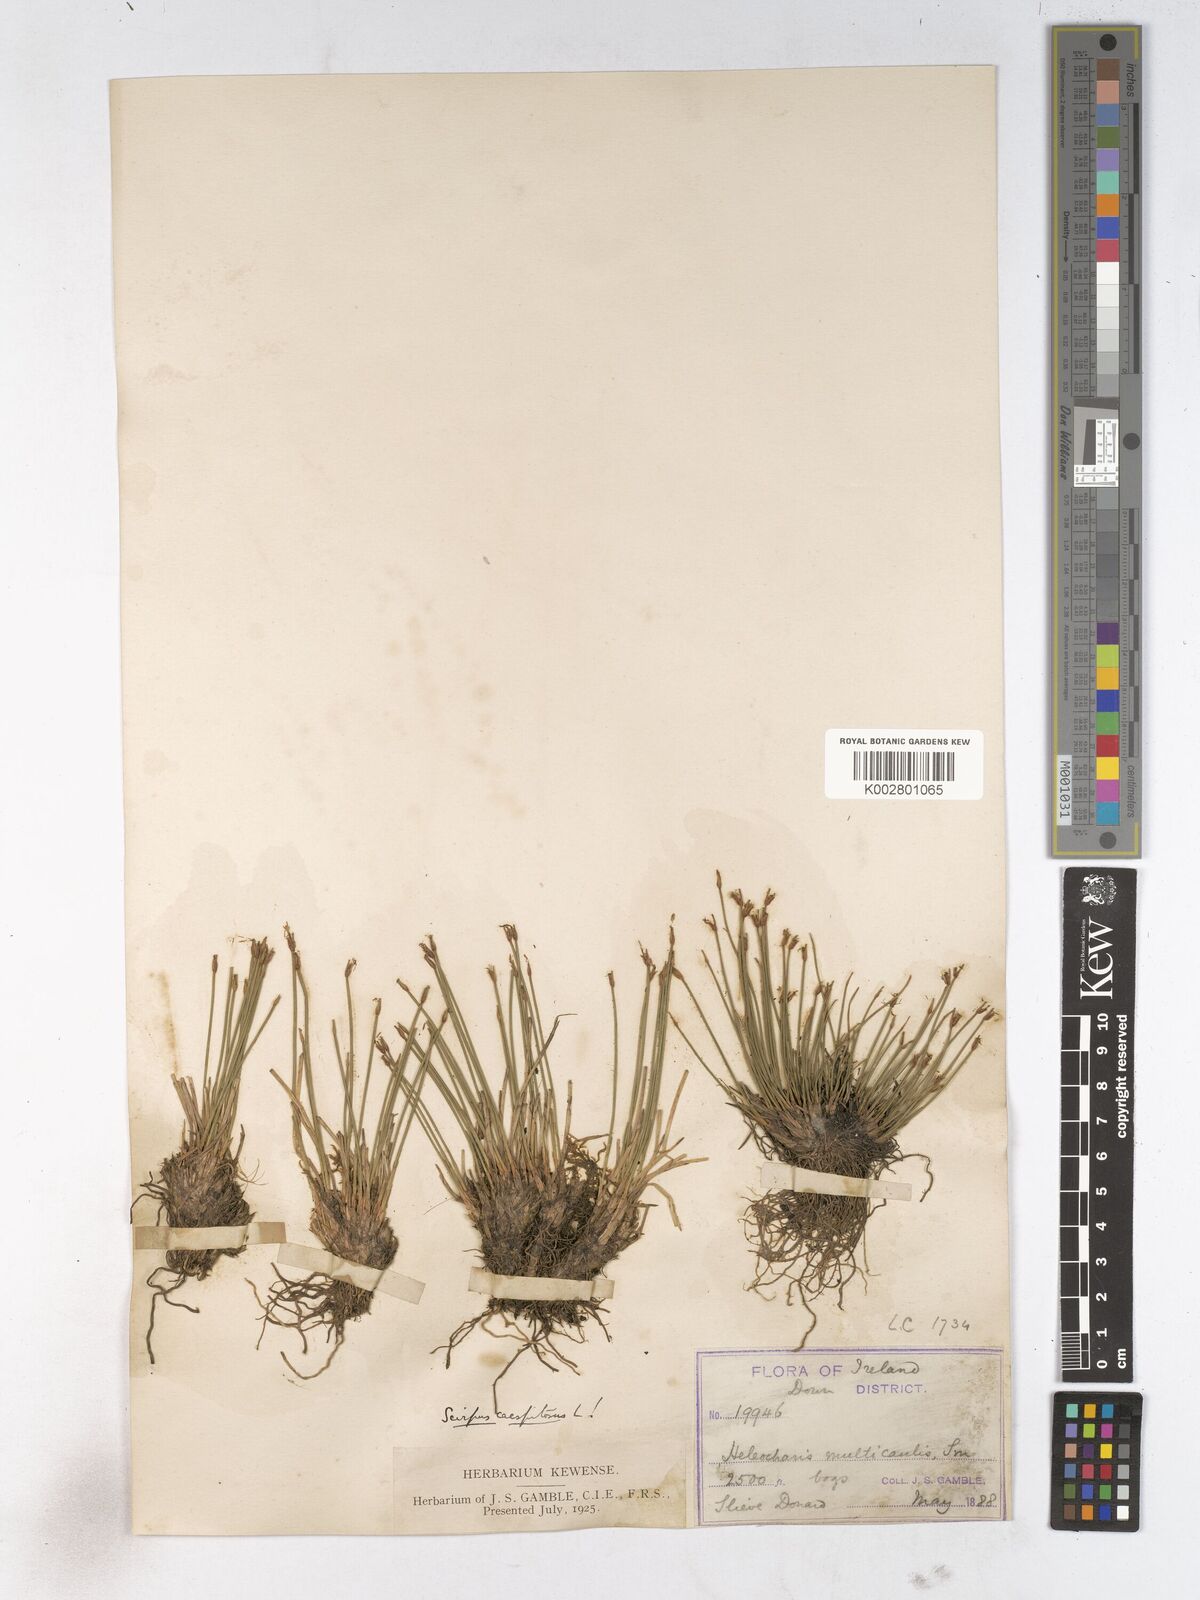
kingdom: Plantae
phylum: Tracheophyta
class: Liliopsida
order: Poales
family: Cyperaceae
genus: Trichophorum
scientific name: Trichophorum cespitosum
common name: Cespitose bulrush
